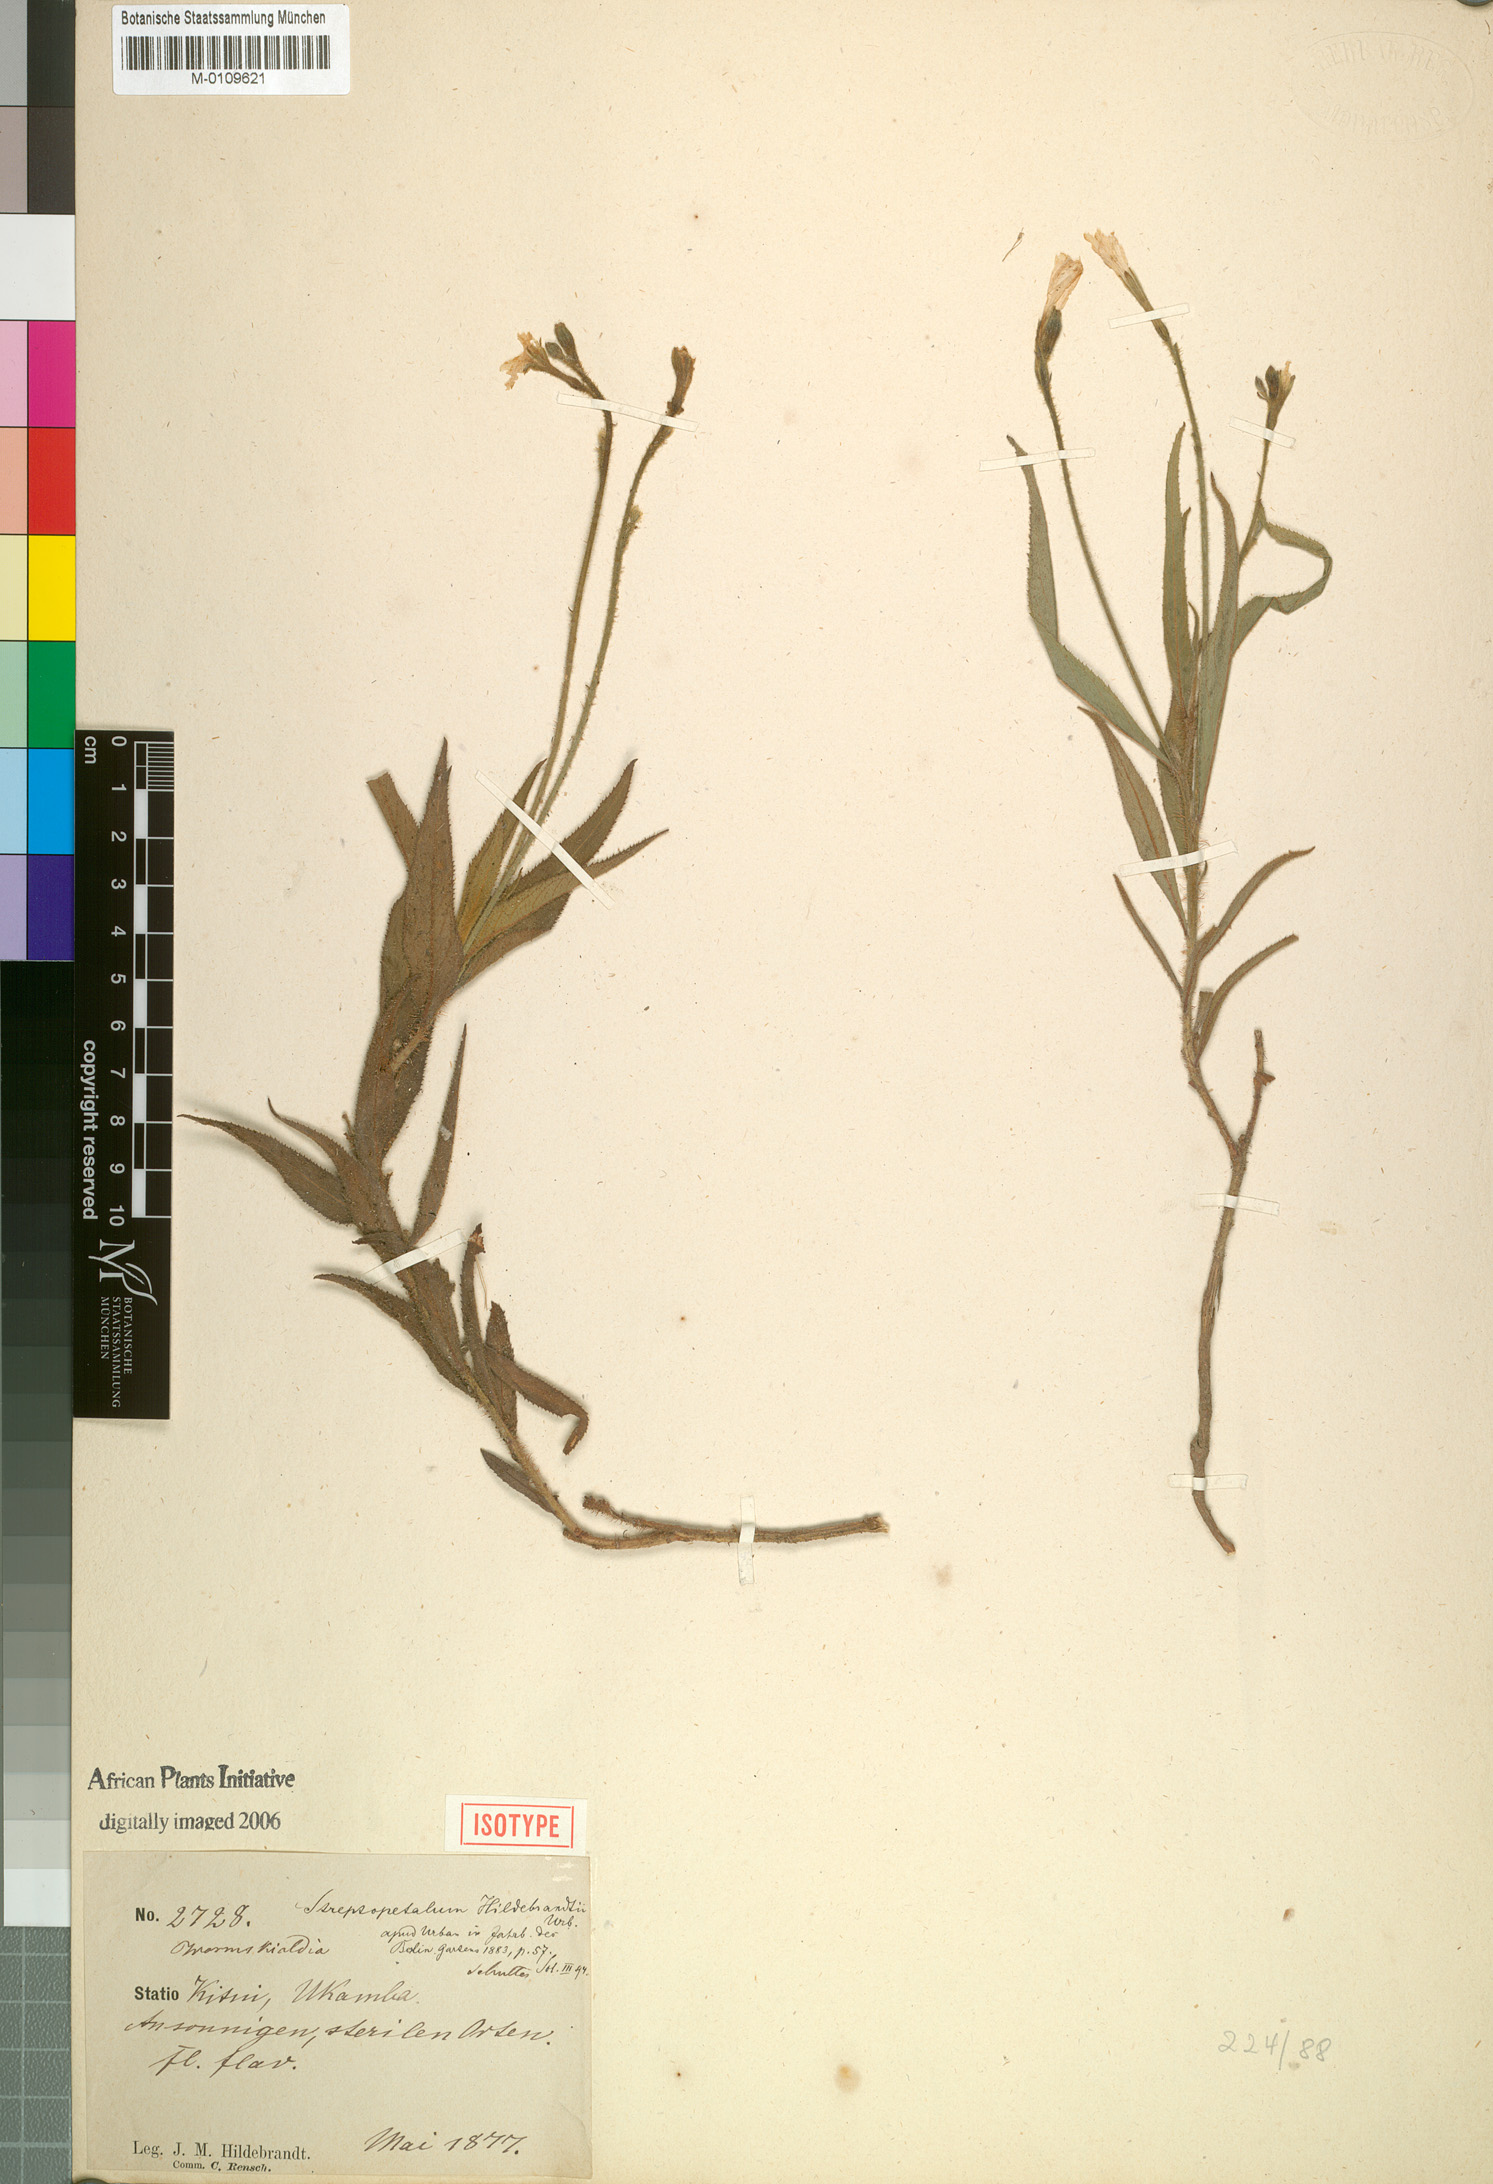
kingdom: Plantae
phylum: Tracheophyta
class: Magnoliopsida
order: Malpighiales
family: Turneraceae
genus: Streptopetalum
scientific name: Streptopetalum hildebrandtii
